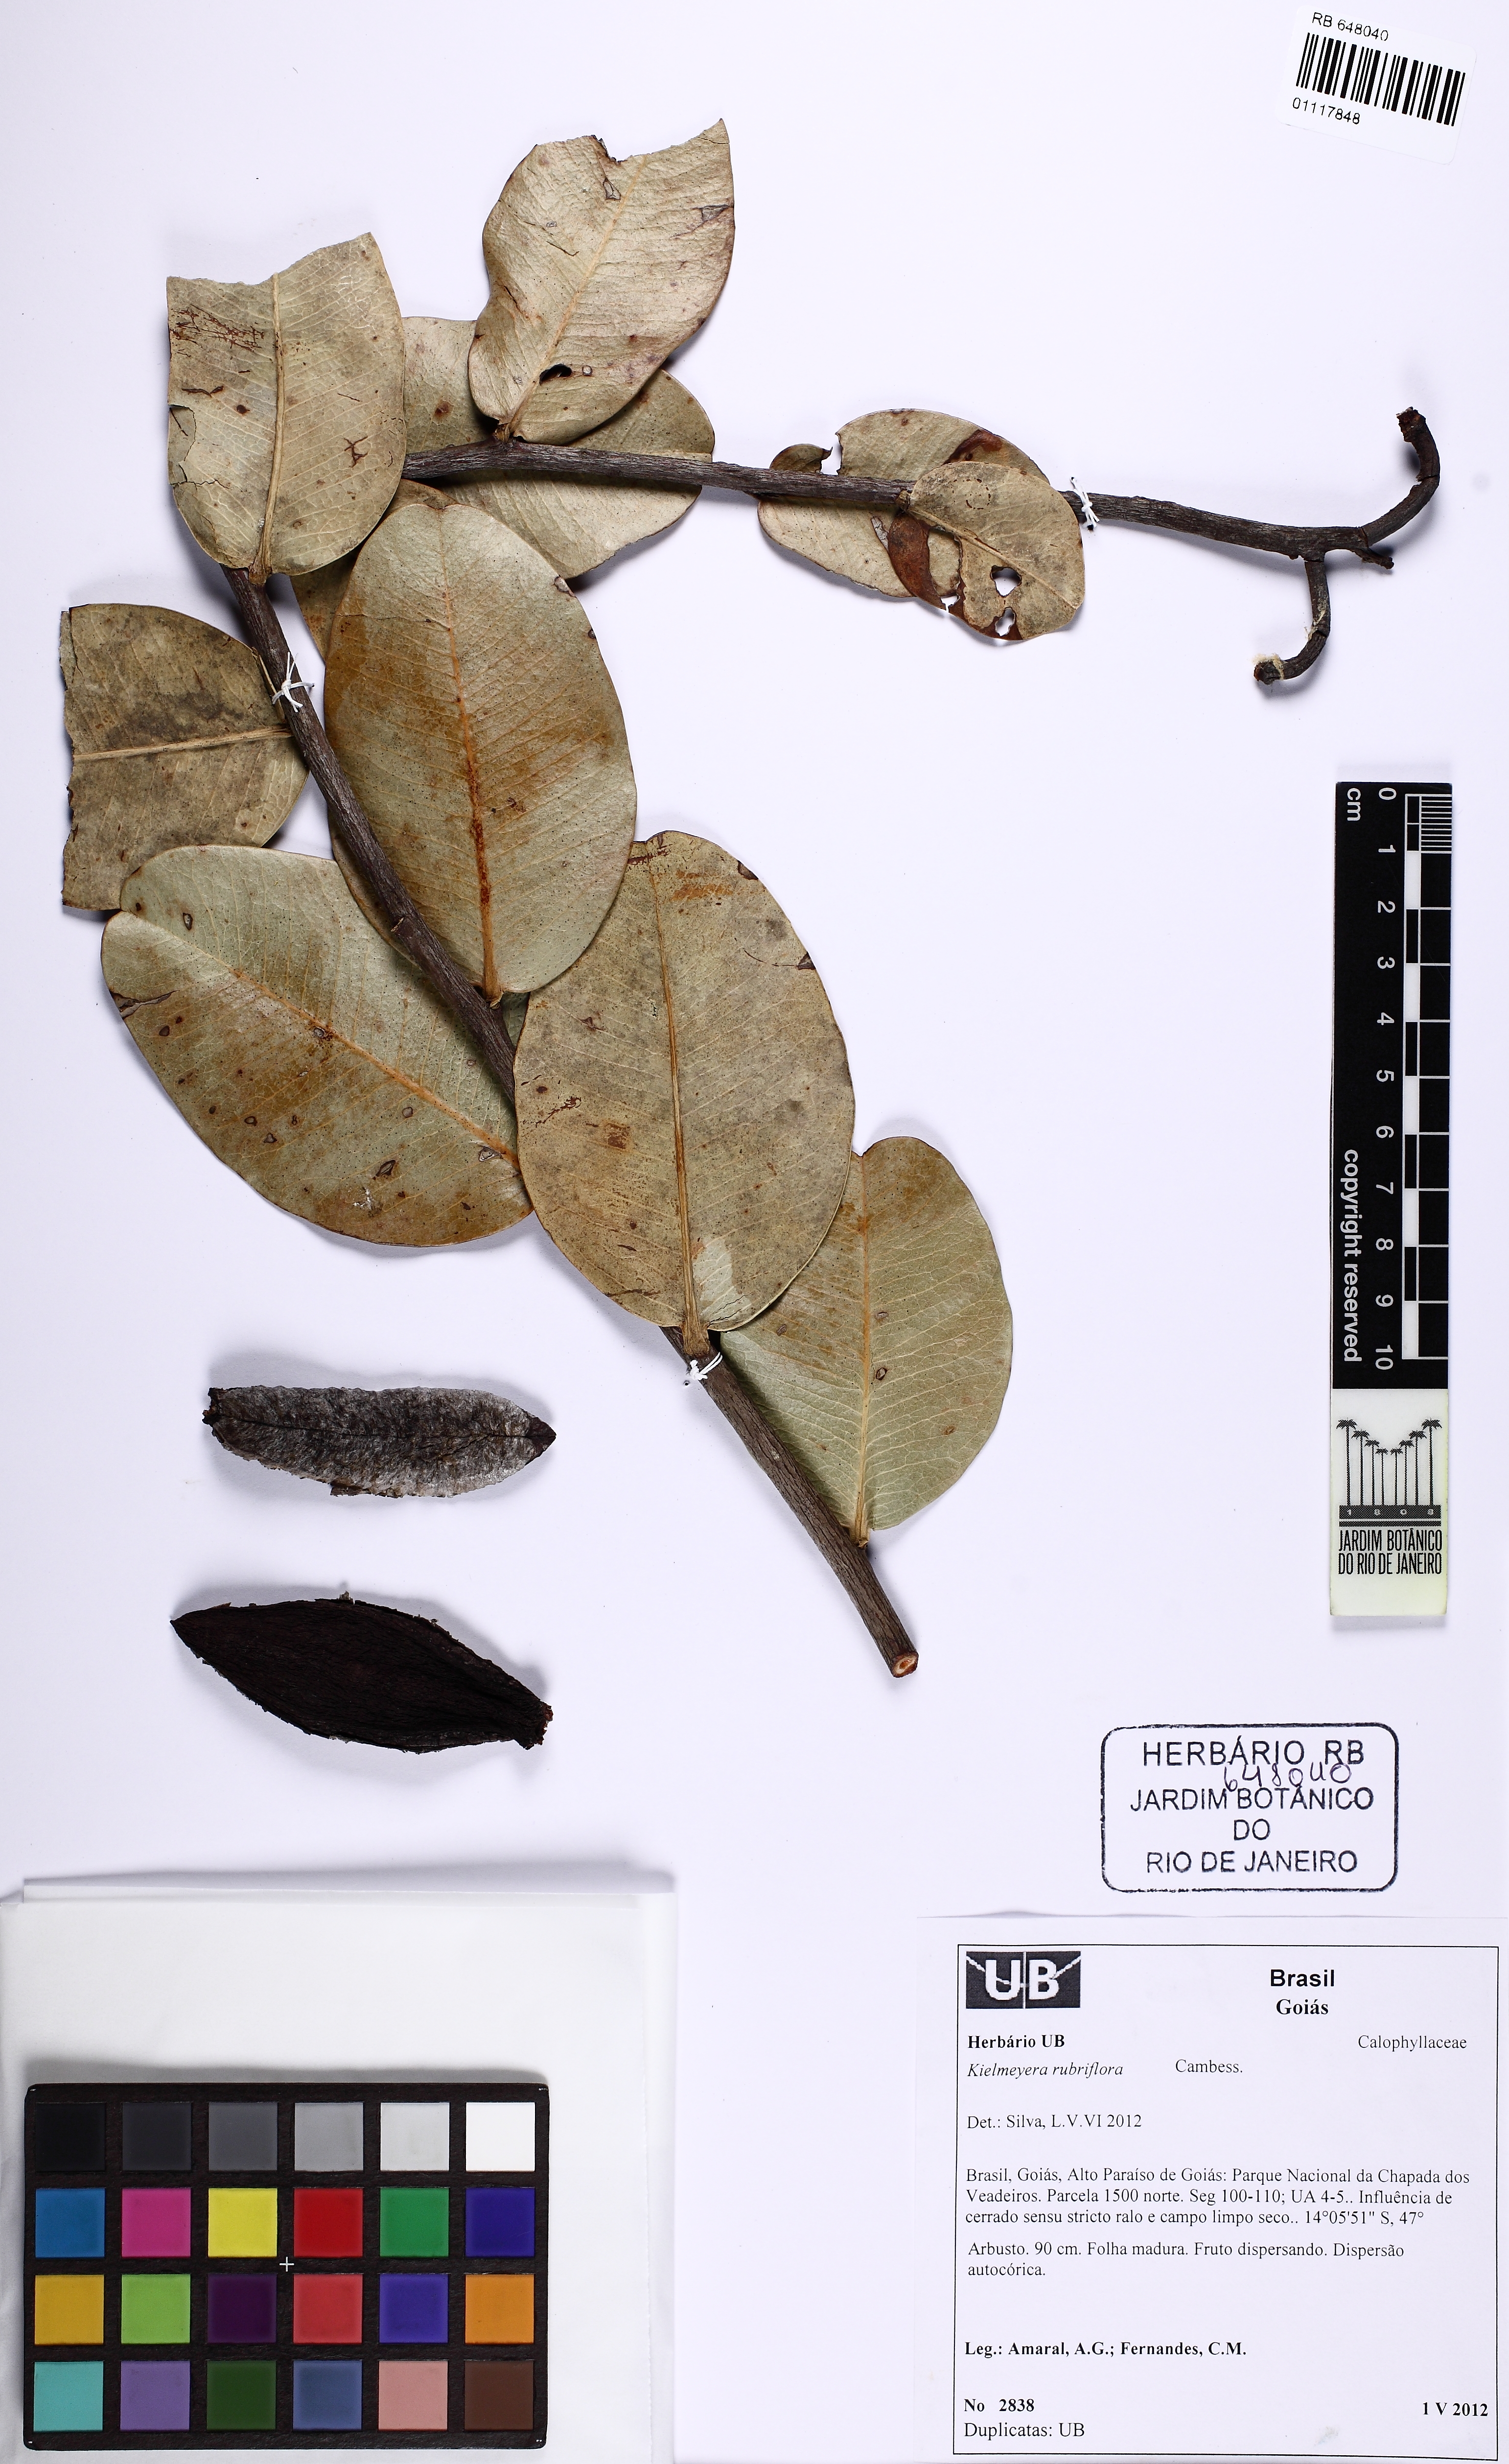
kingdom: Plantae
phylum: Tracheophyta
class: Magnoliopsida
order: Malpighiales
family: Calophyllaceae
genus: Kielmeyera
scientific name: Kielmeyera rubriflora
